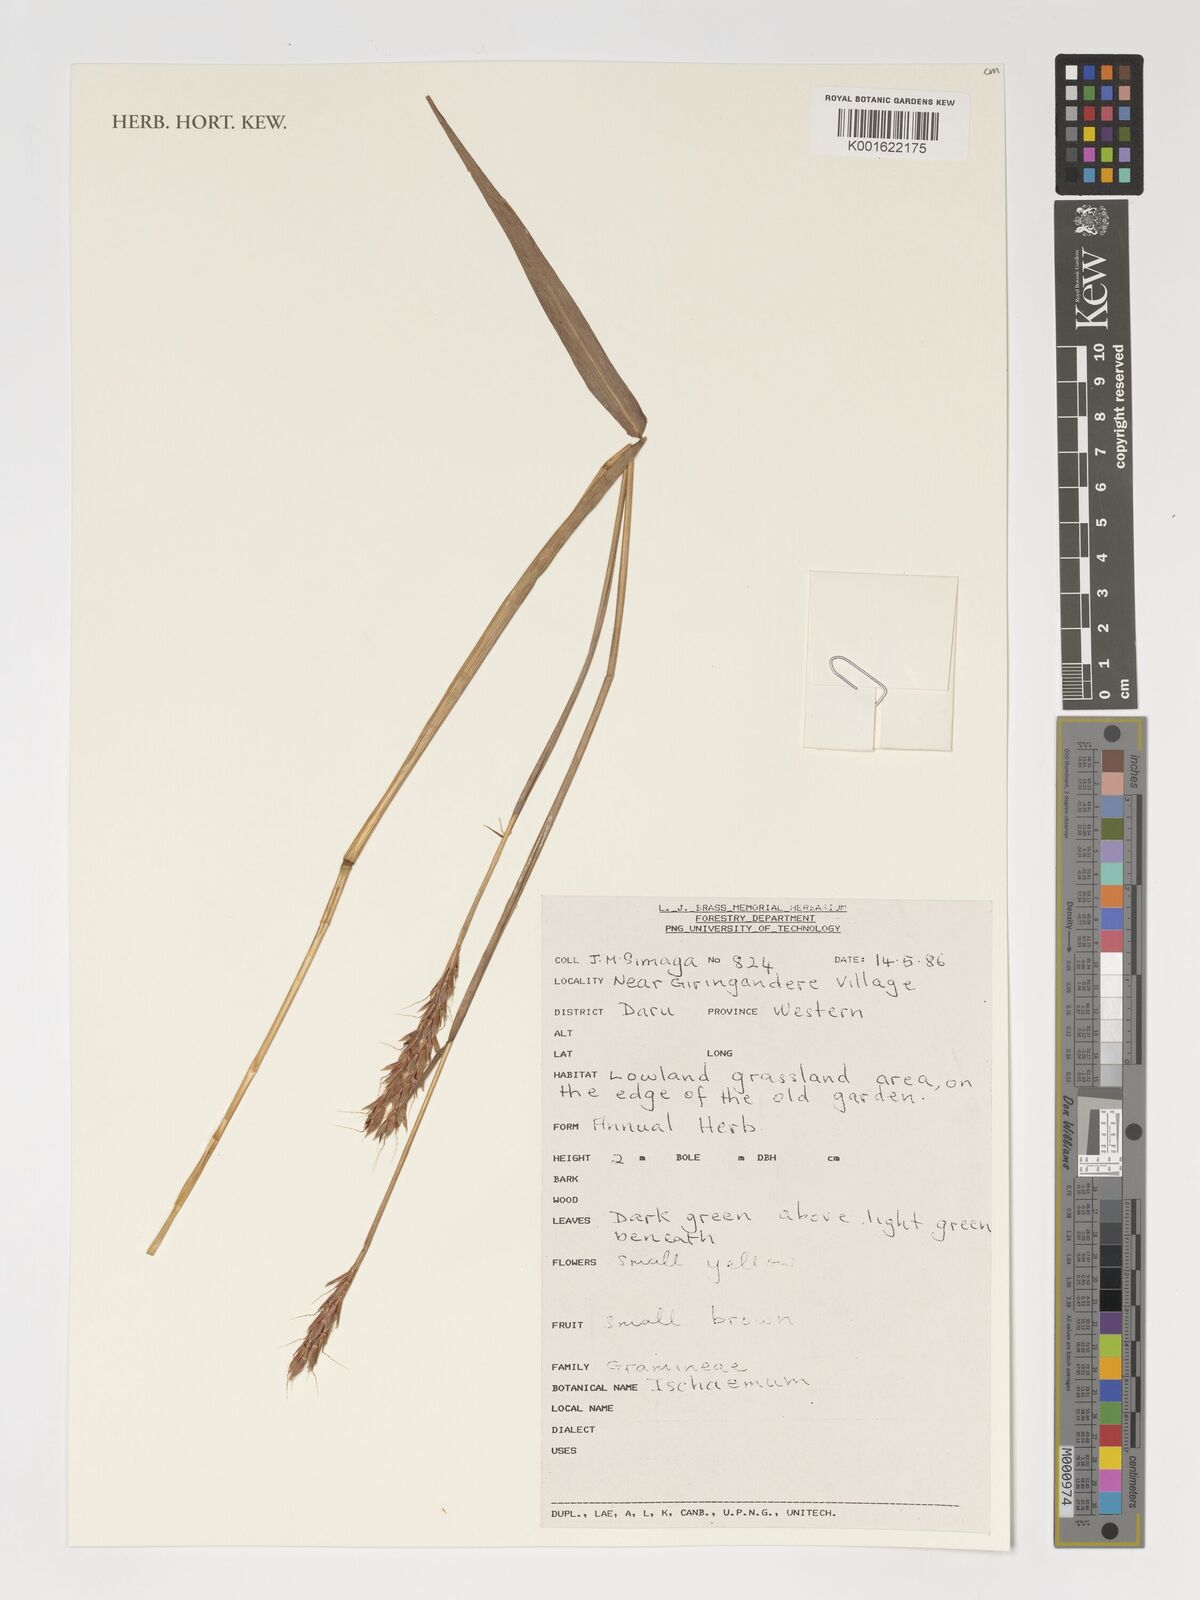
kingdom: Plantae
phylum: Tracheophyta
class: Liliopsida
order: Poales
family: Poaceae
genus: Ischaemum
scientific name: Ischaemum
